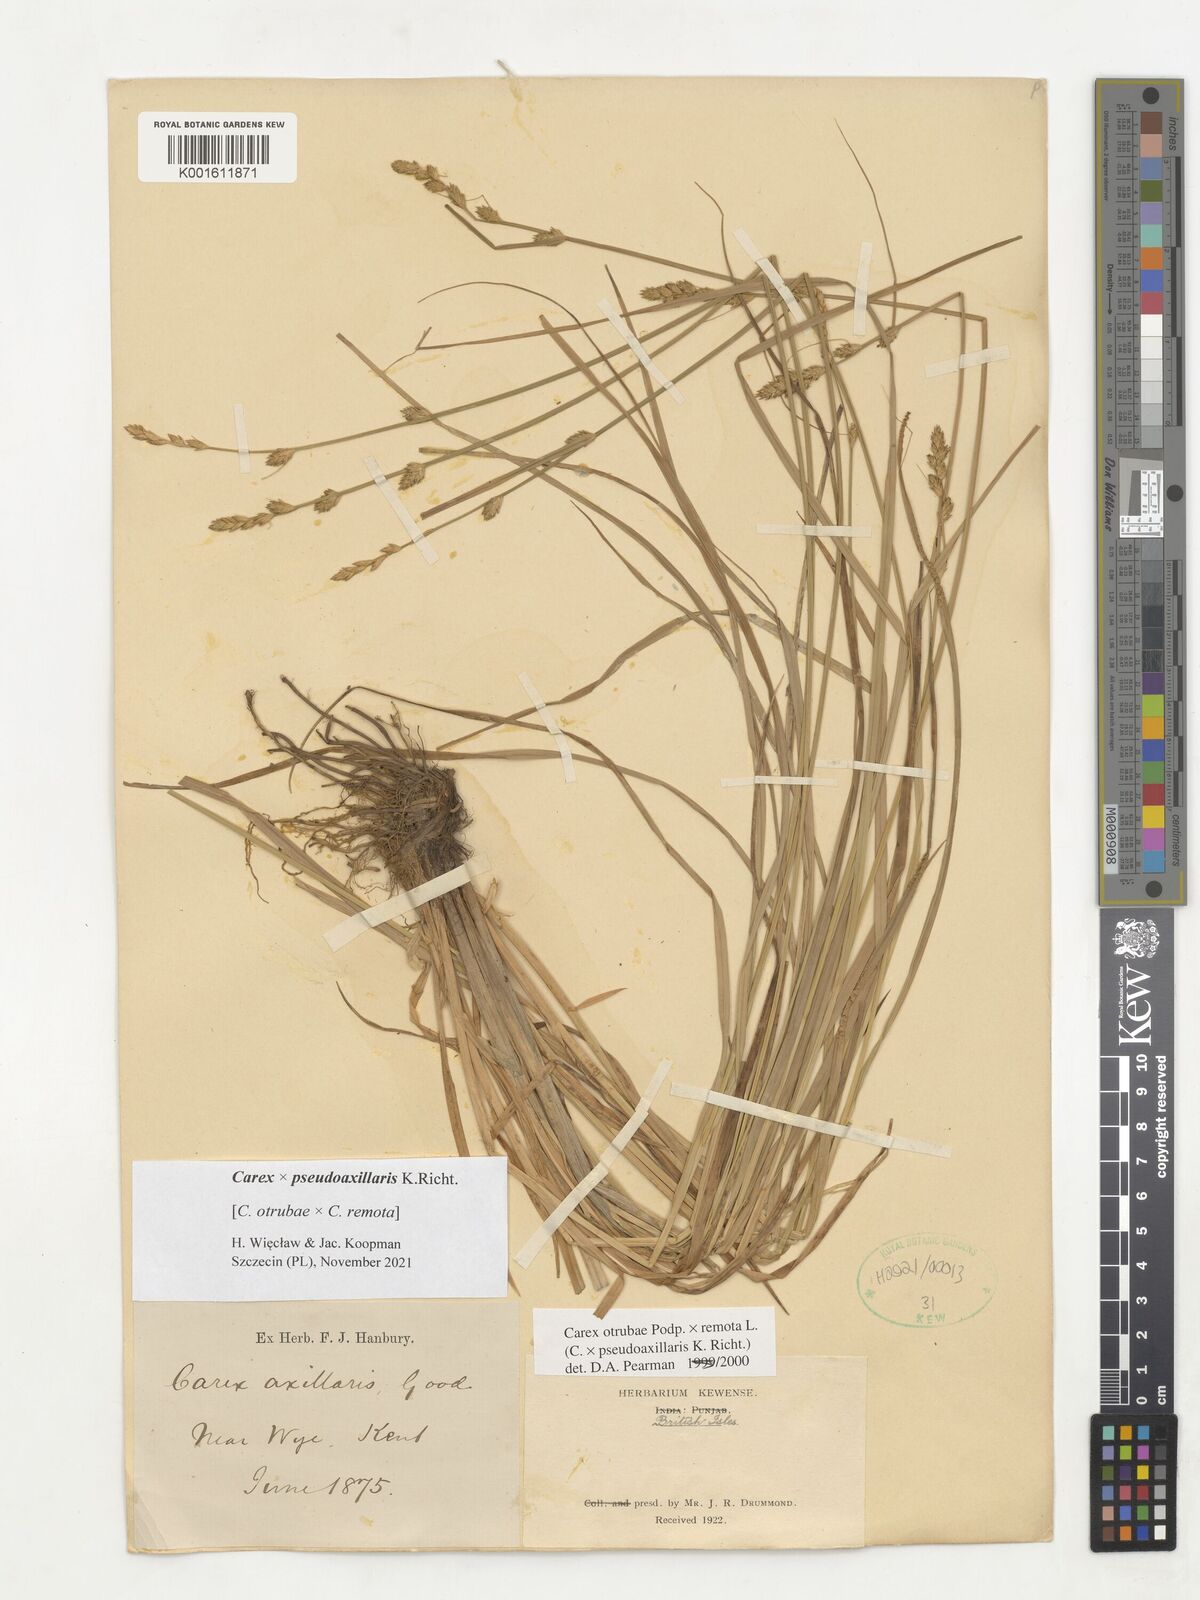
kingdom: Plantae
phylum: Tracheophyta
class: Liliopsida
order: Poales
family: Cyperaceae
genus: Carex
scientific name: Carex pseudoaxillaris
